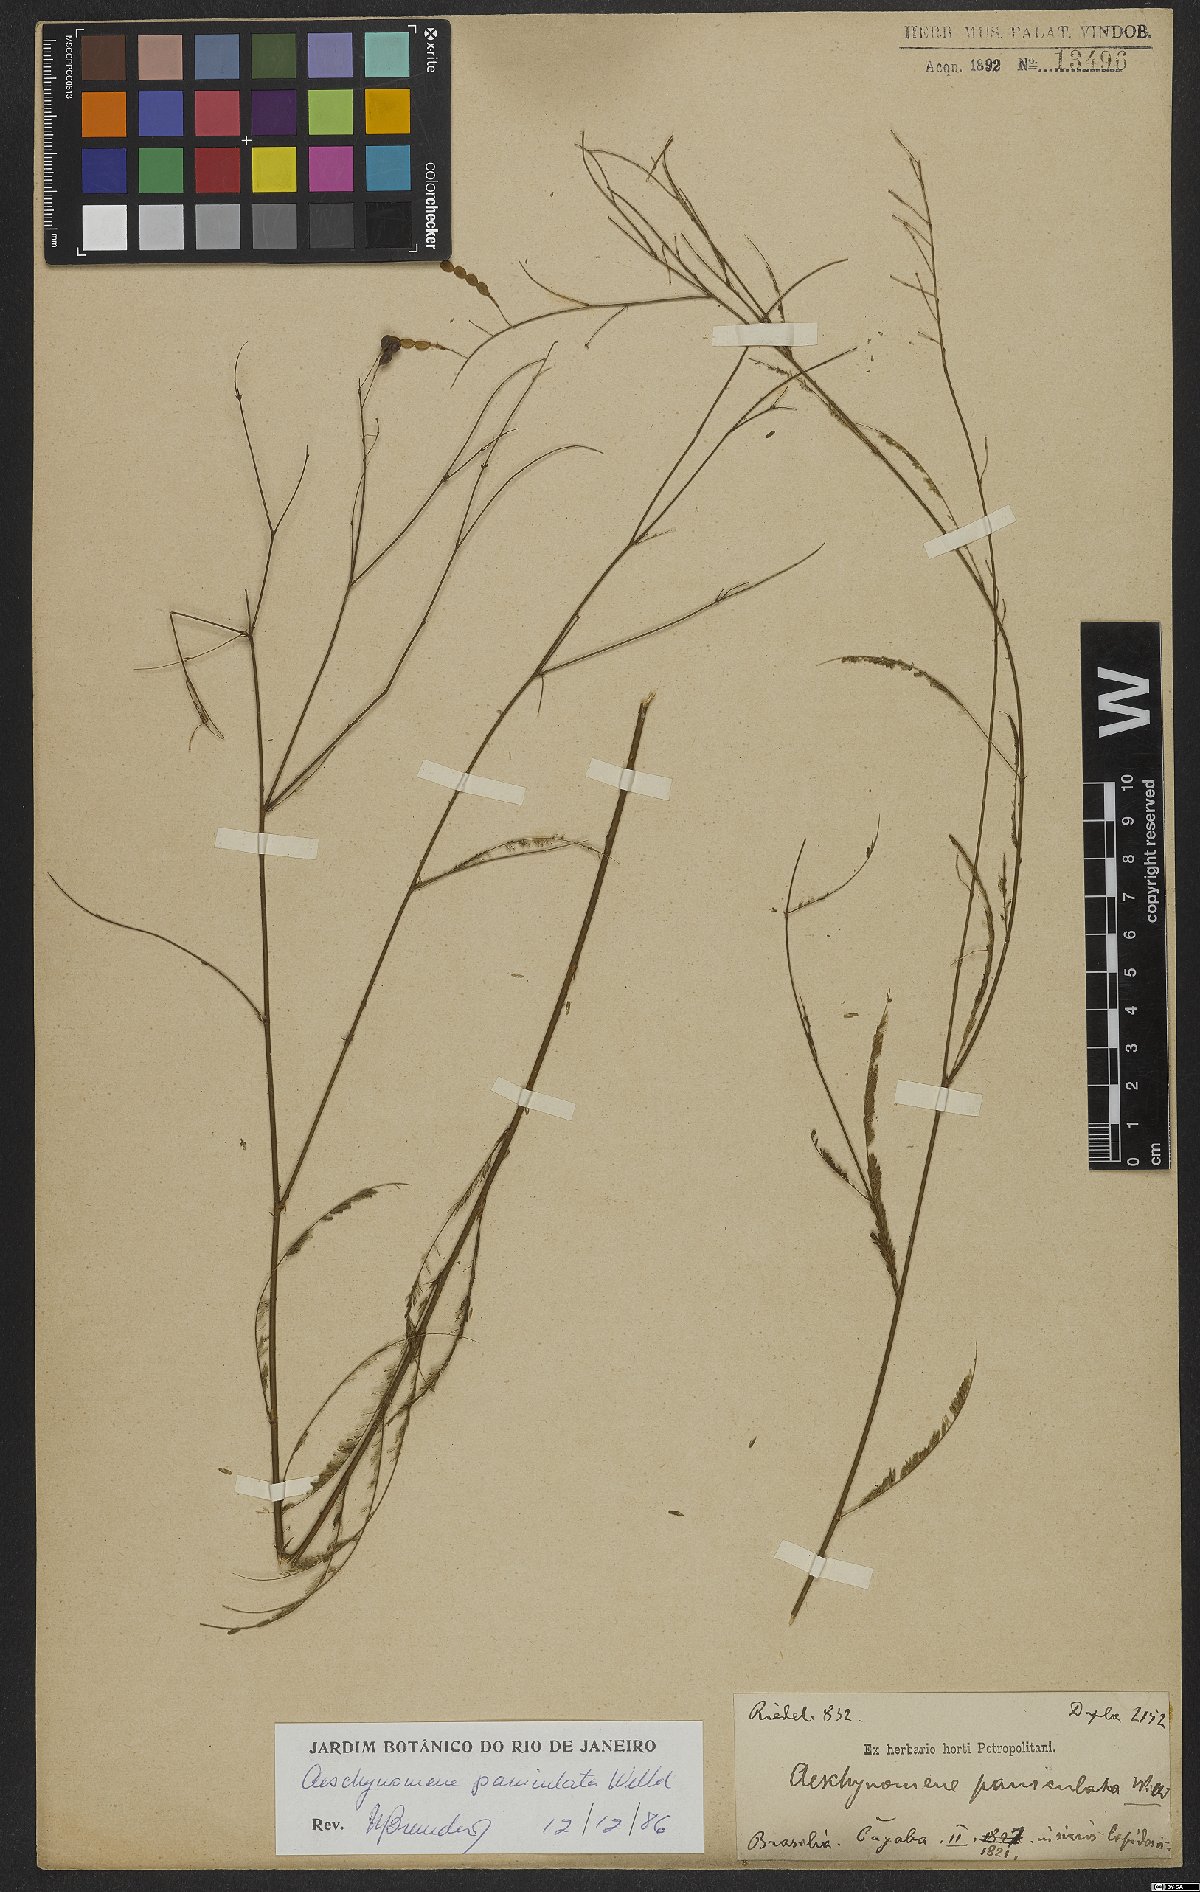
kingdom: Plantae
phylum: Tracheophyta
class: Magnoliopsida
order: Fabales
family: Fabaceae
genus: Ctenodon
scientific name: Ctenodon paniculatus
